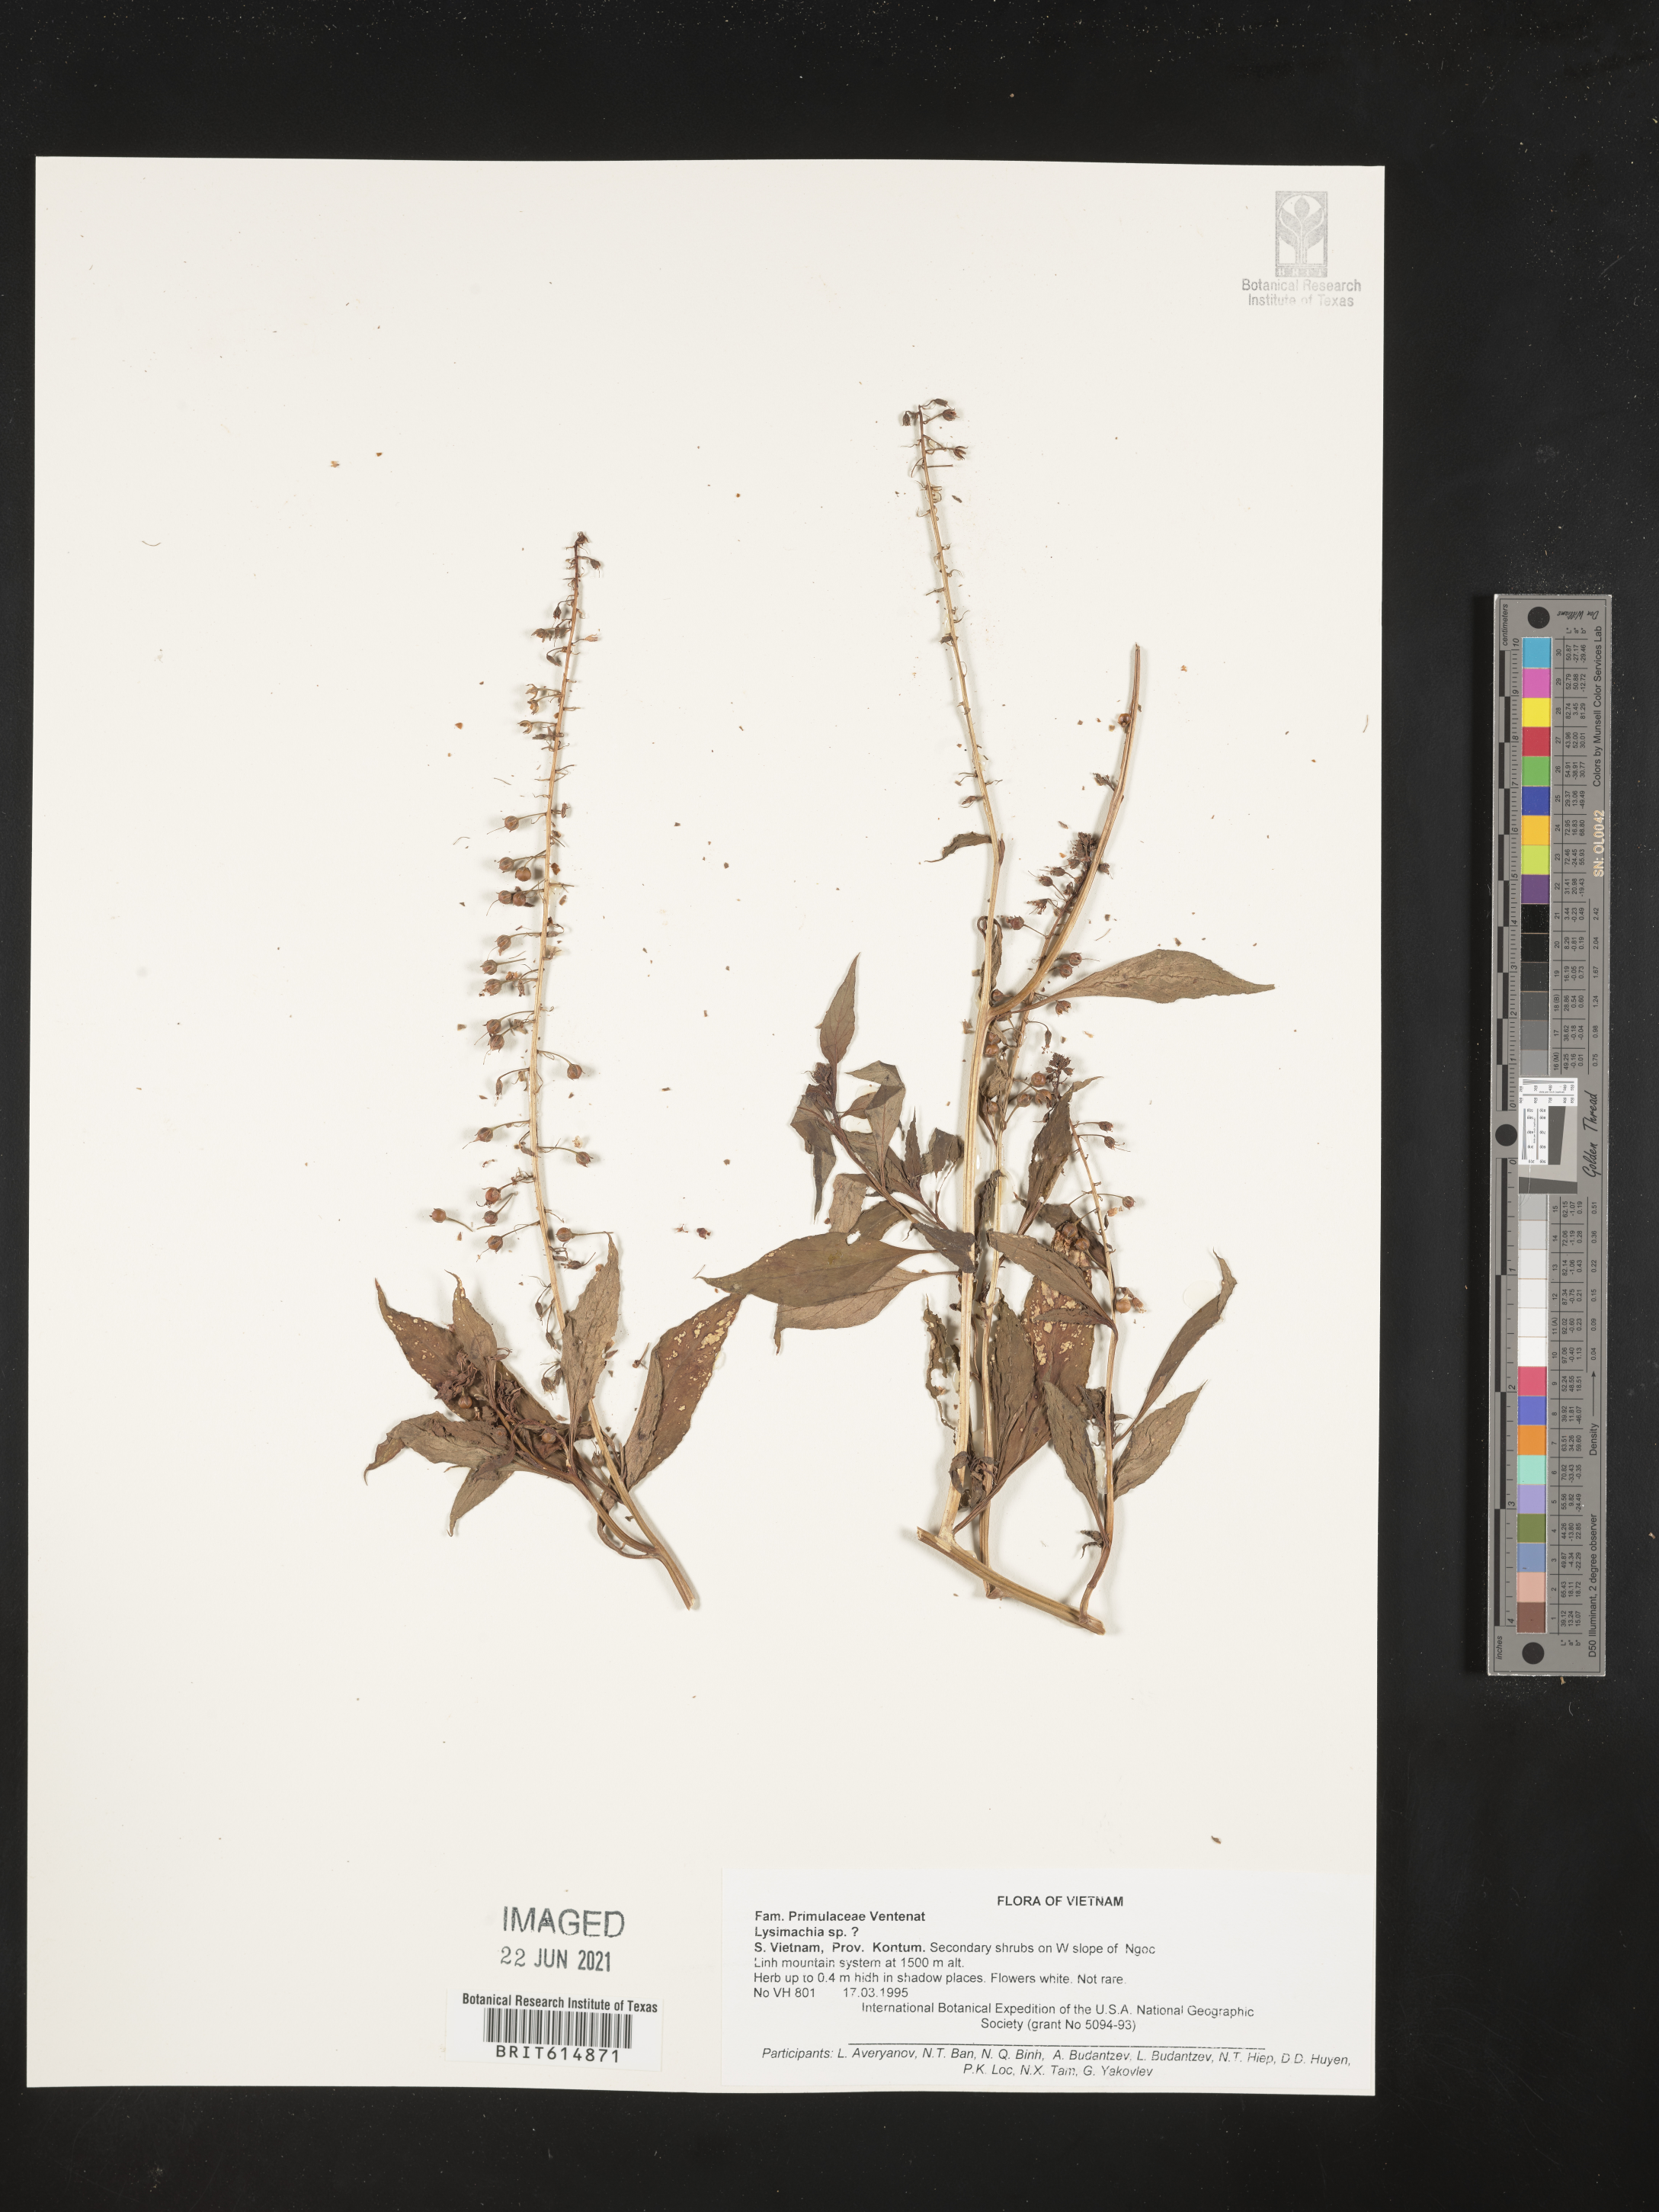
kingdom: Plantae
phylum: Tracheophyta
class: Magnoliopsida
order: Ericales
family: Primulaceae
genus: Lysimachia
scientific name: Lysimachia
